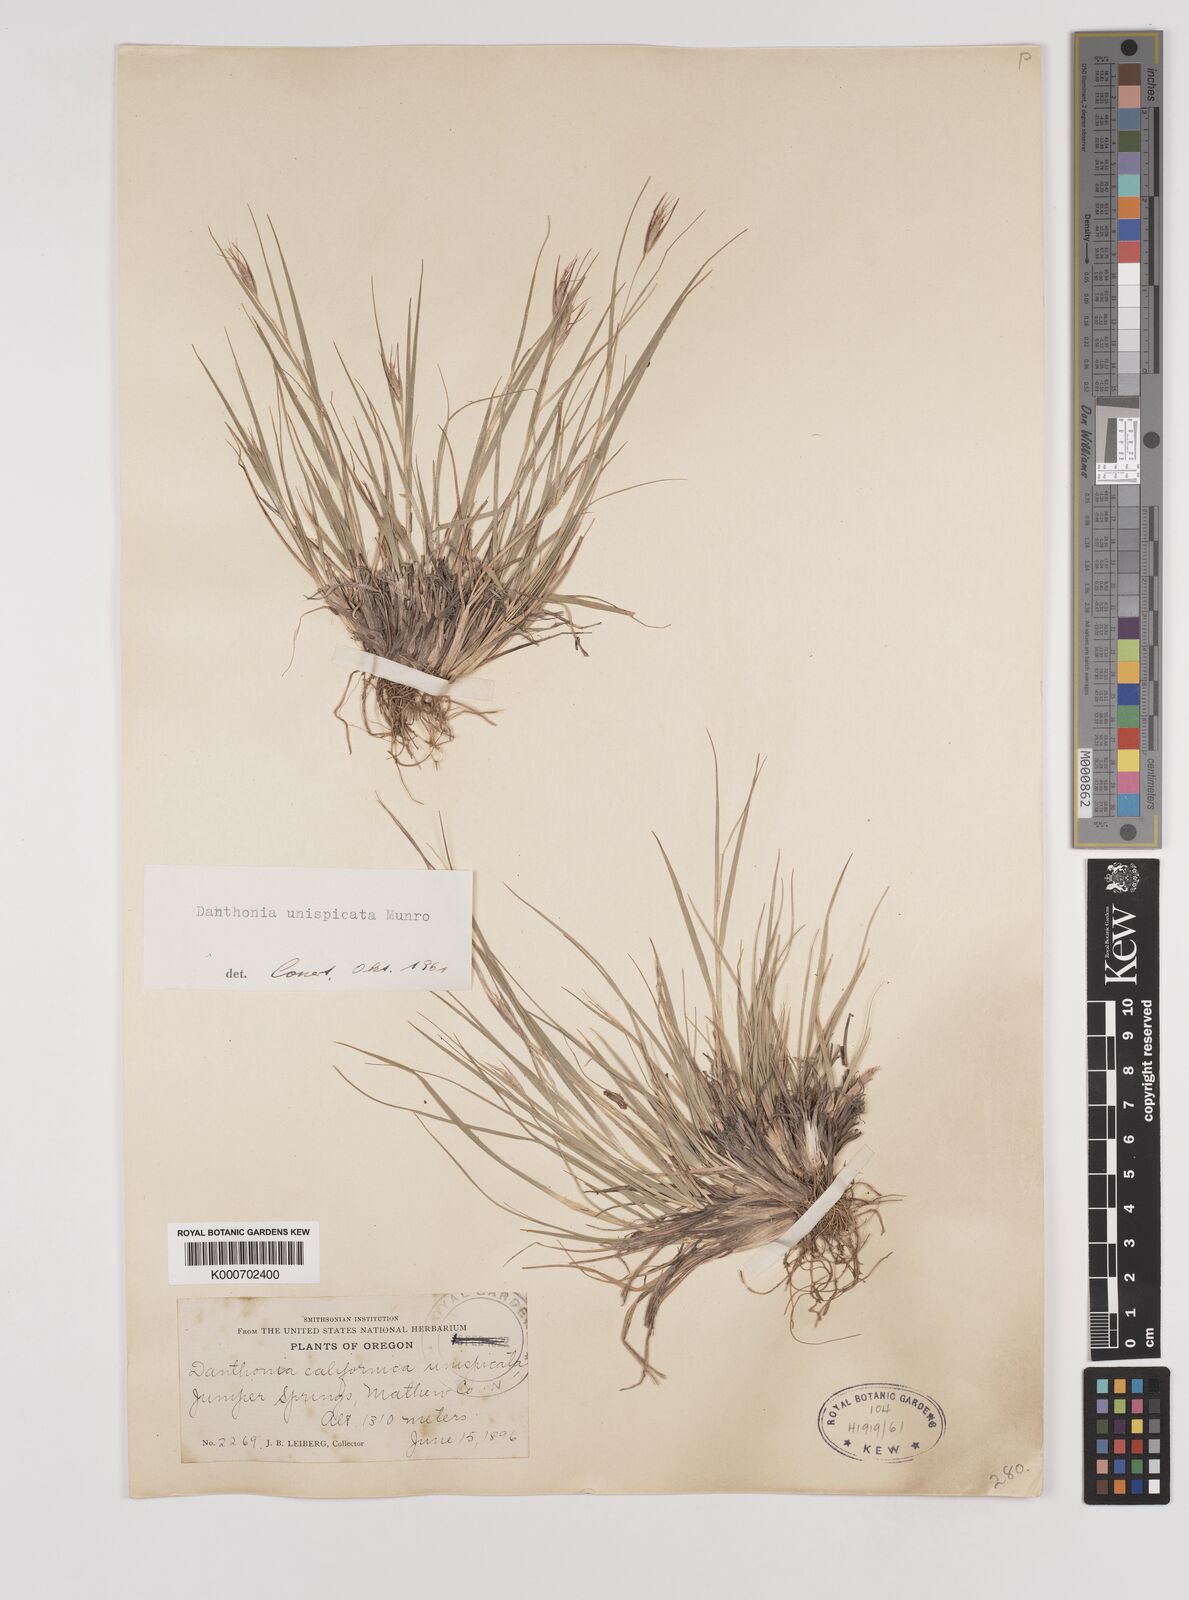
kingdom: Plantae
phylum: Tracheophyta
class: Liliopsida
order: Poales
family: Poaceae
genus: Danthonia
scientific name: Danthonia unispicata
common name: Few-flowered oatgrass
